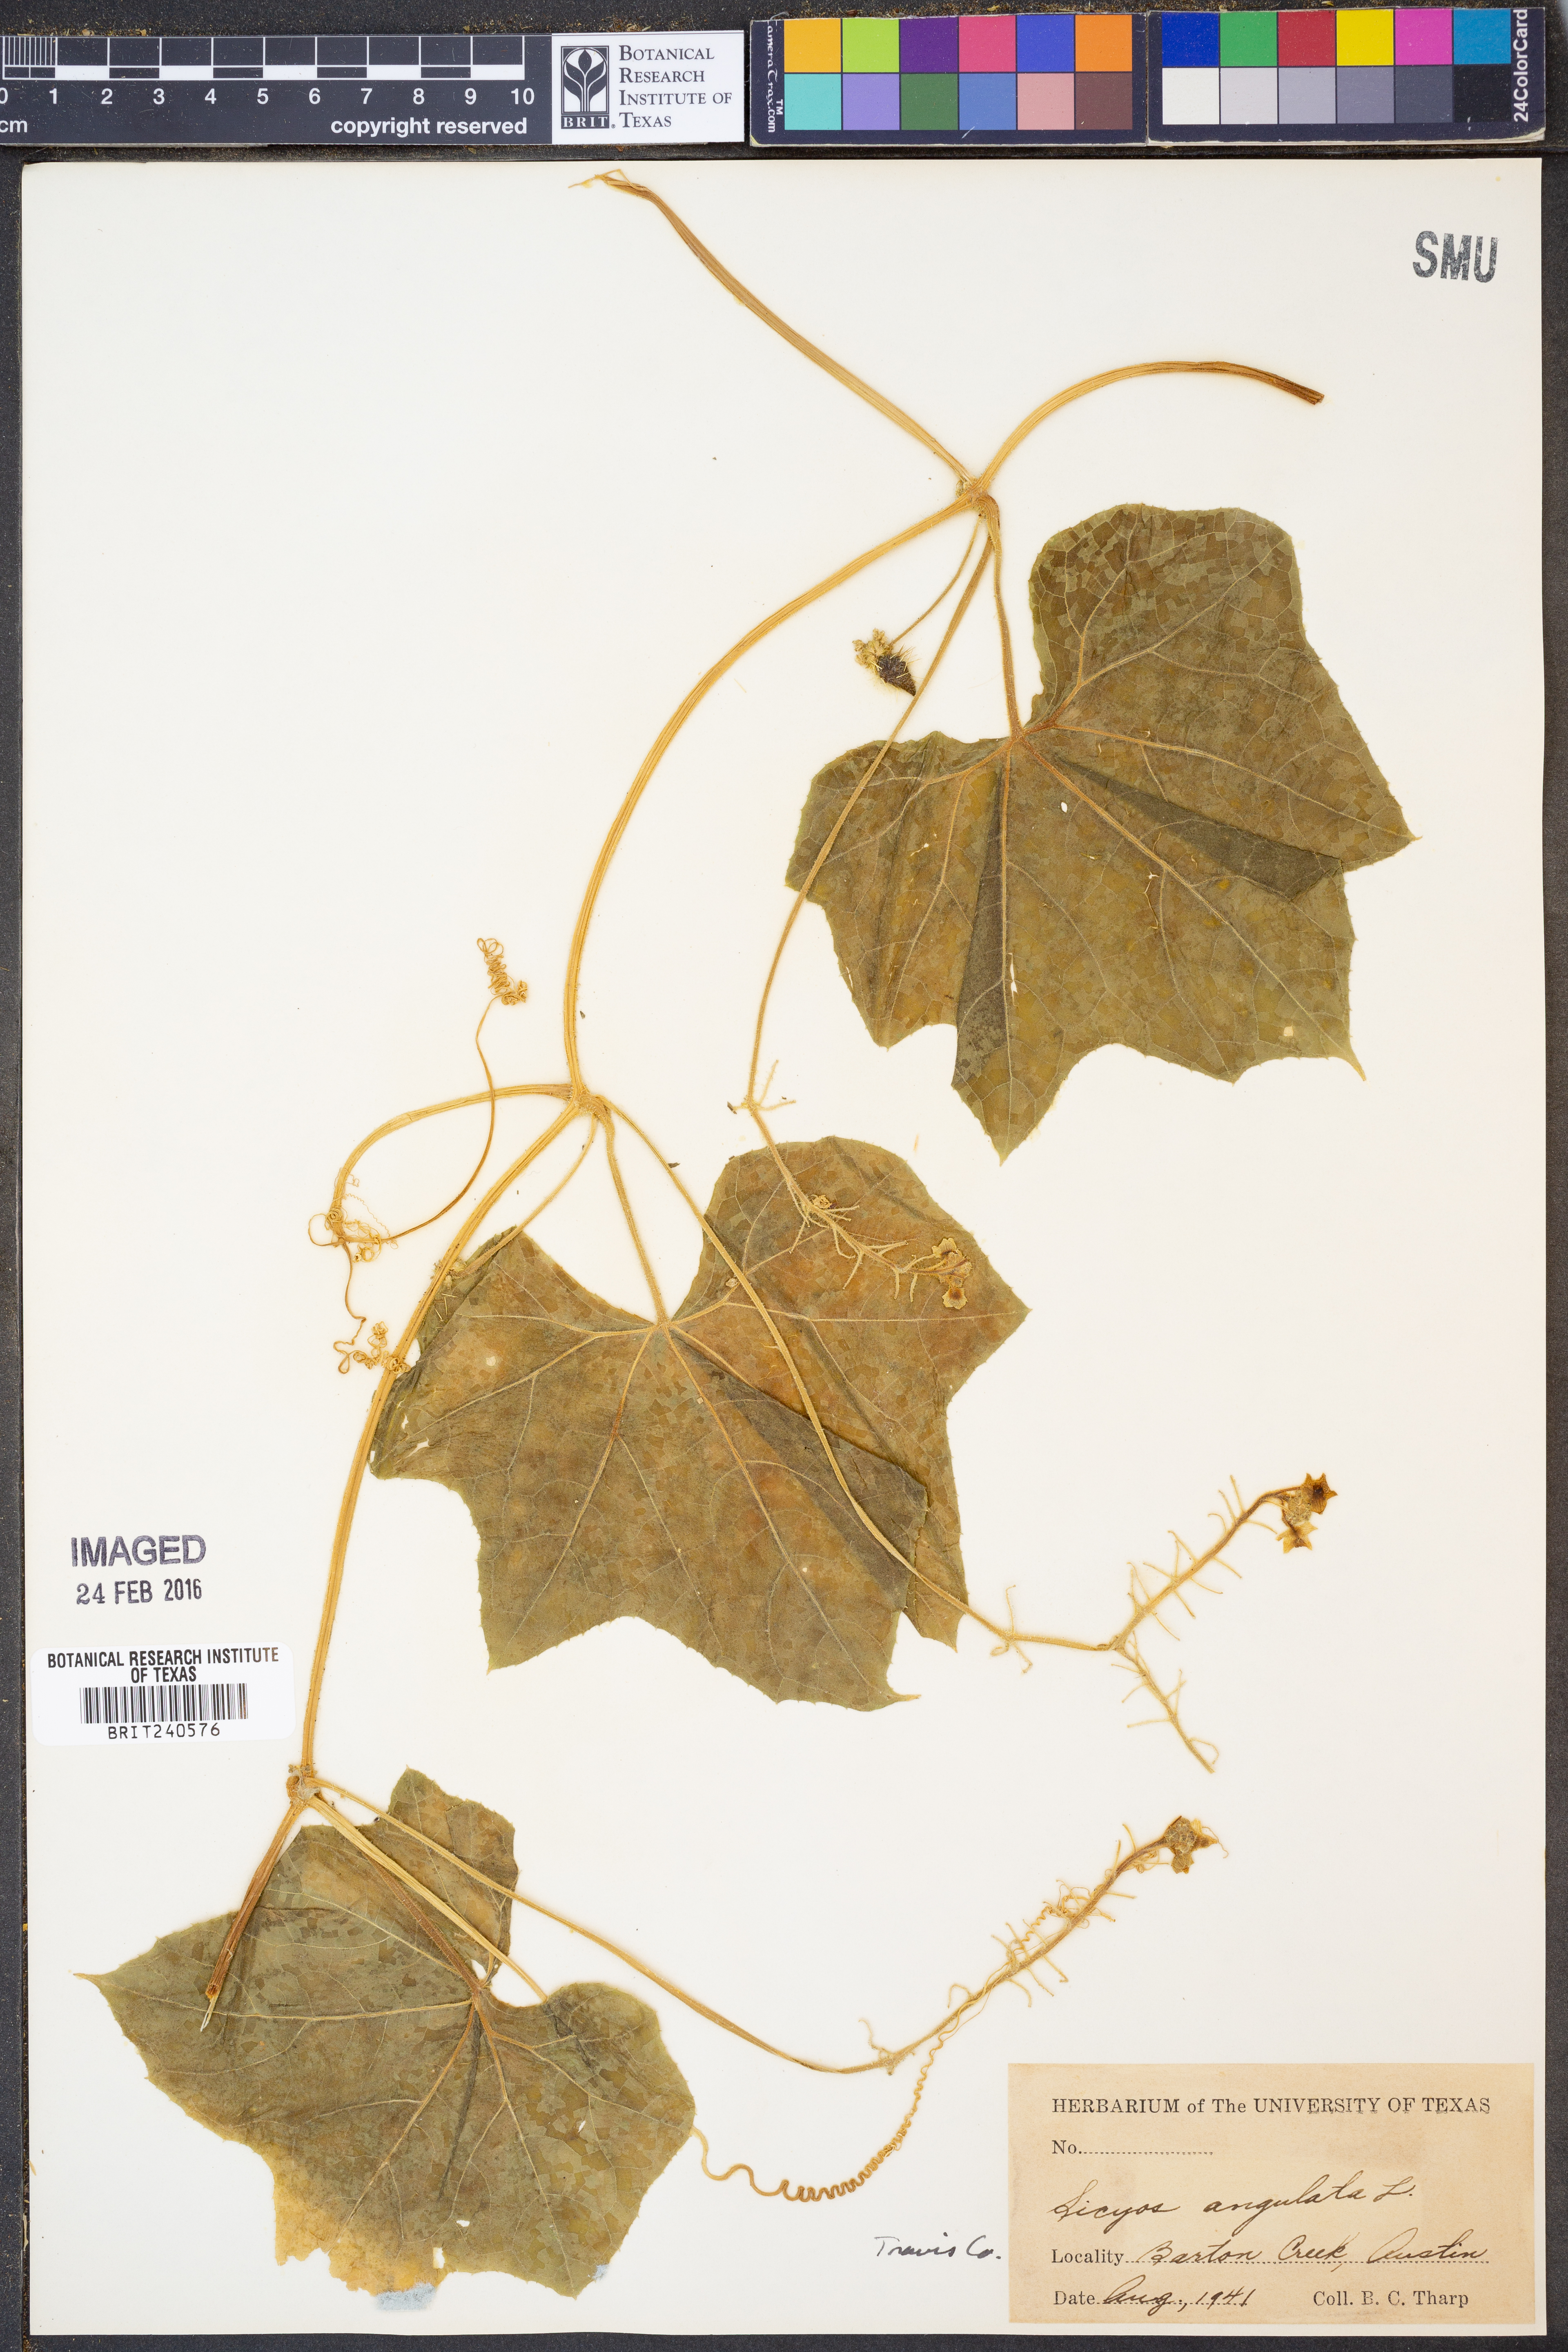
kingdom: Plantae
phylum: Tracheophyta
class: Magnoliopsida
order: Cucurbitales
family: Cucurbitaceae
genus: Sicyos
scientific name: Sicyos angulatus
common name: Angled burr cucumber
